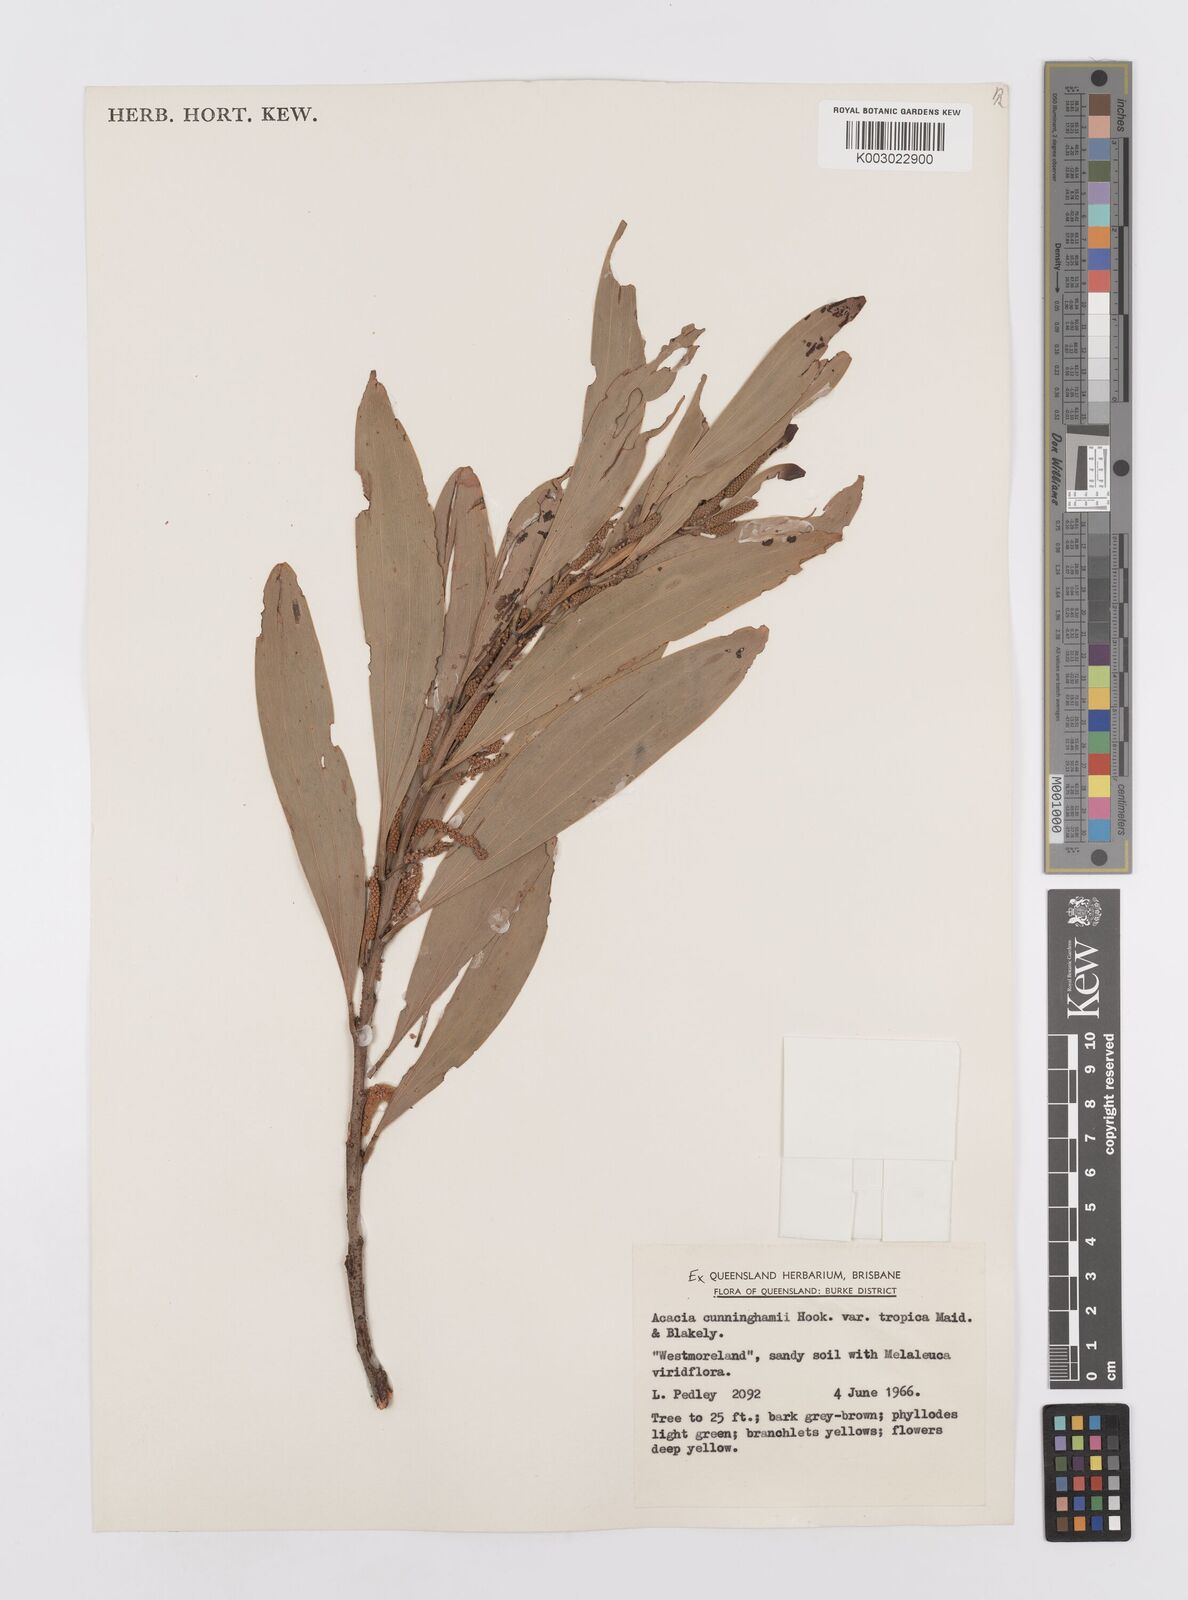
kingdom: Plantae
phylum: Tracheophyta
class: Magnoliopsida
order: Fabales
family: Fabaceae
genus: Acacia
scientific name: Acacia tropica
